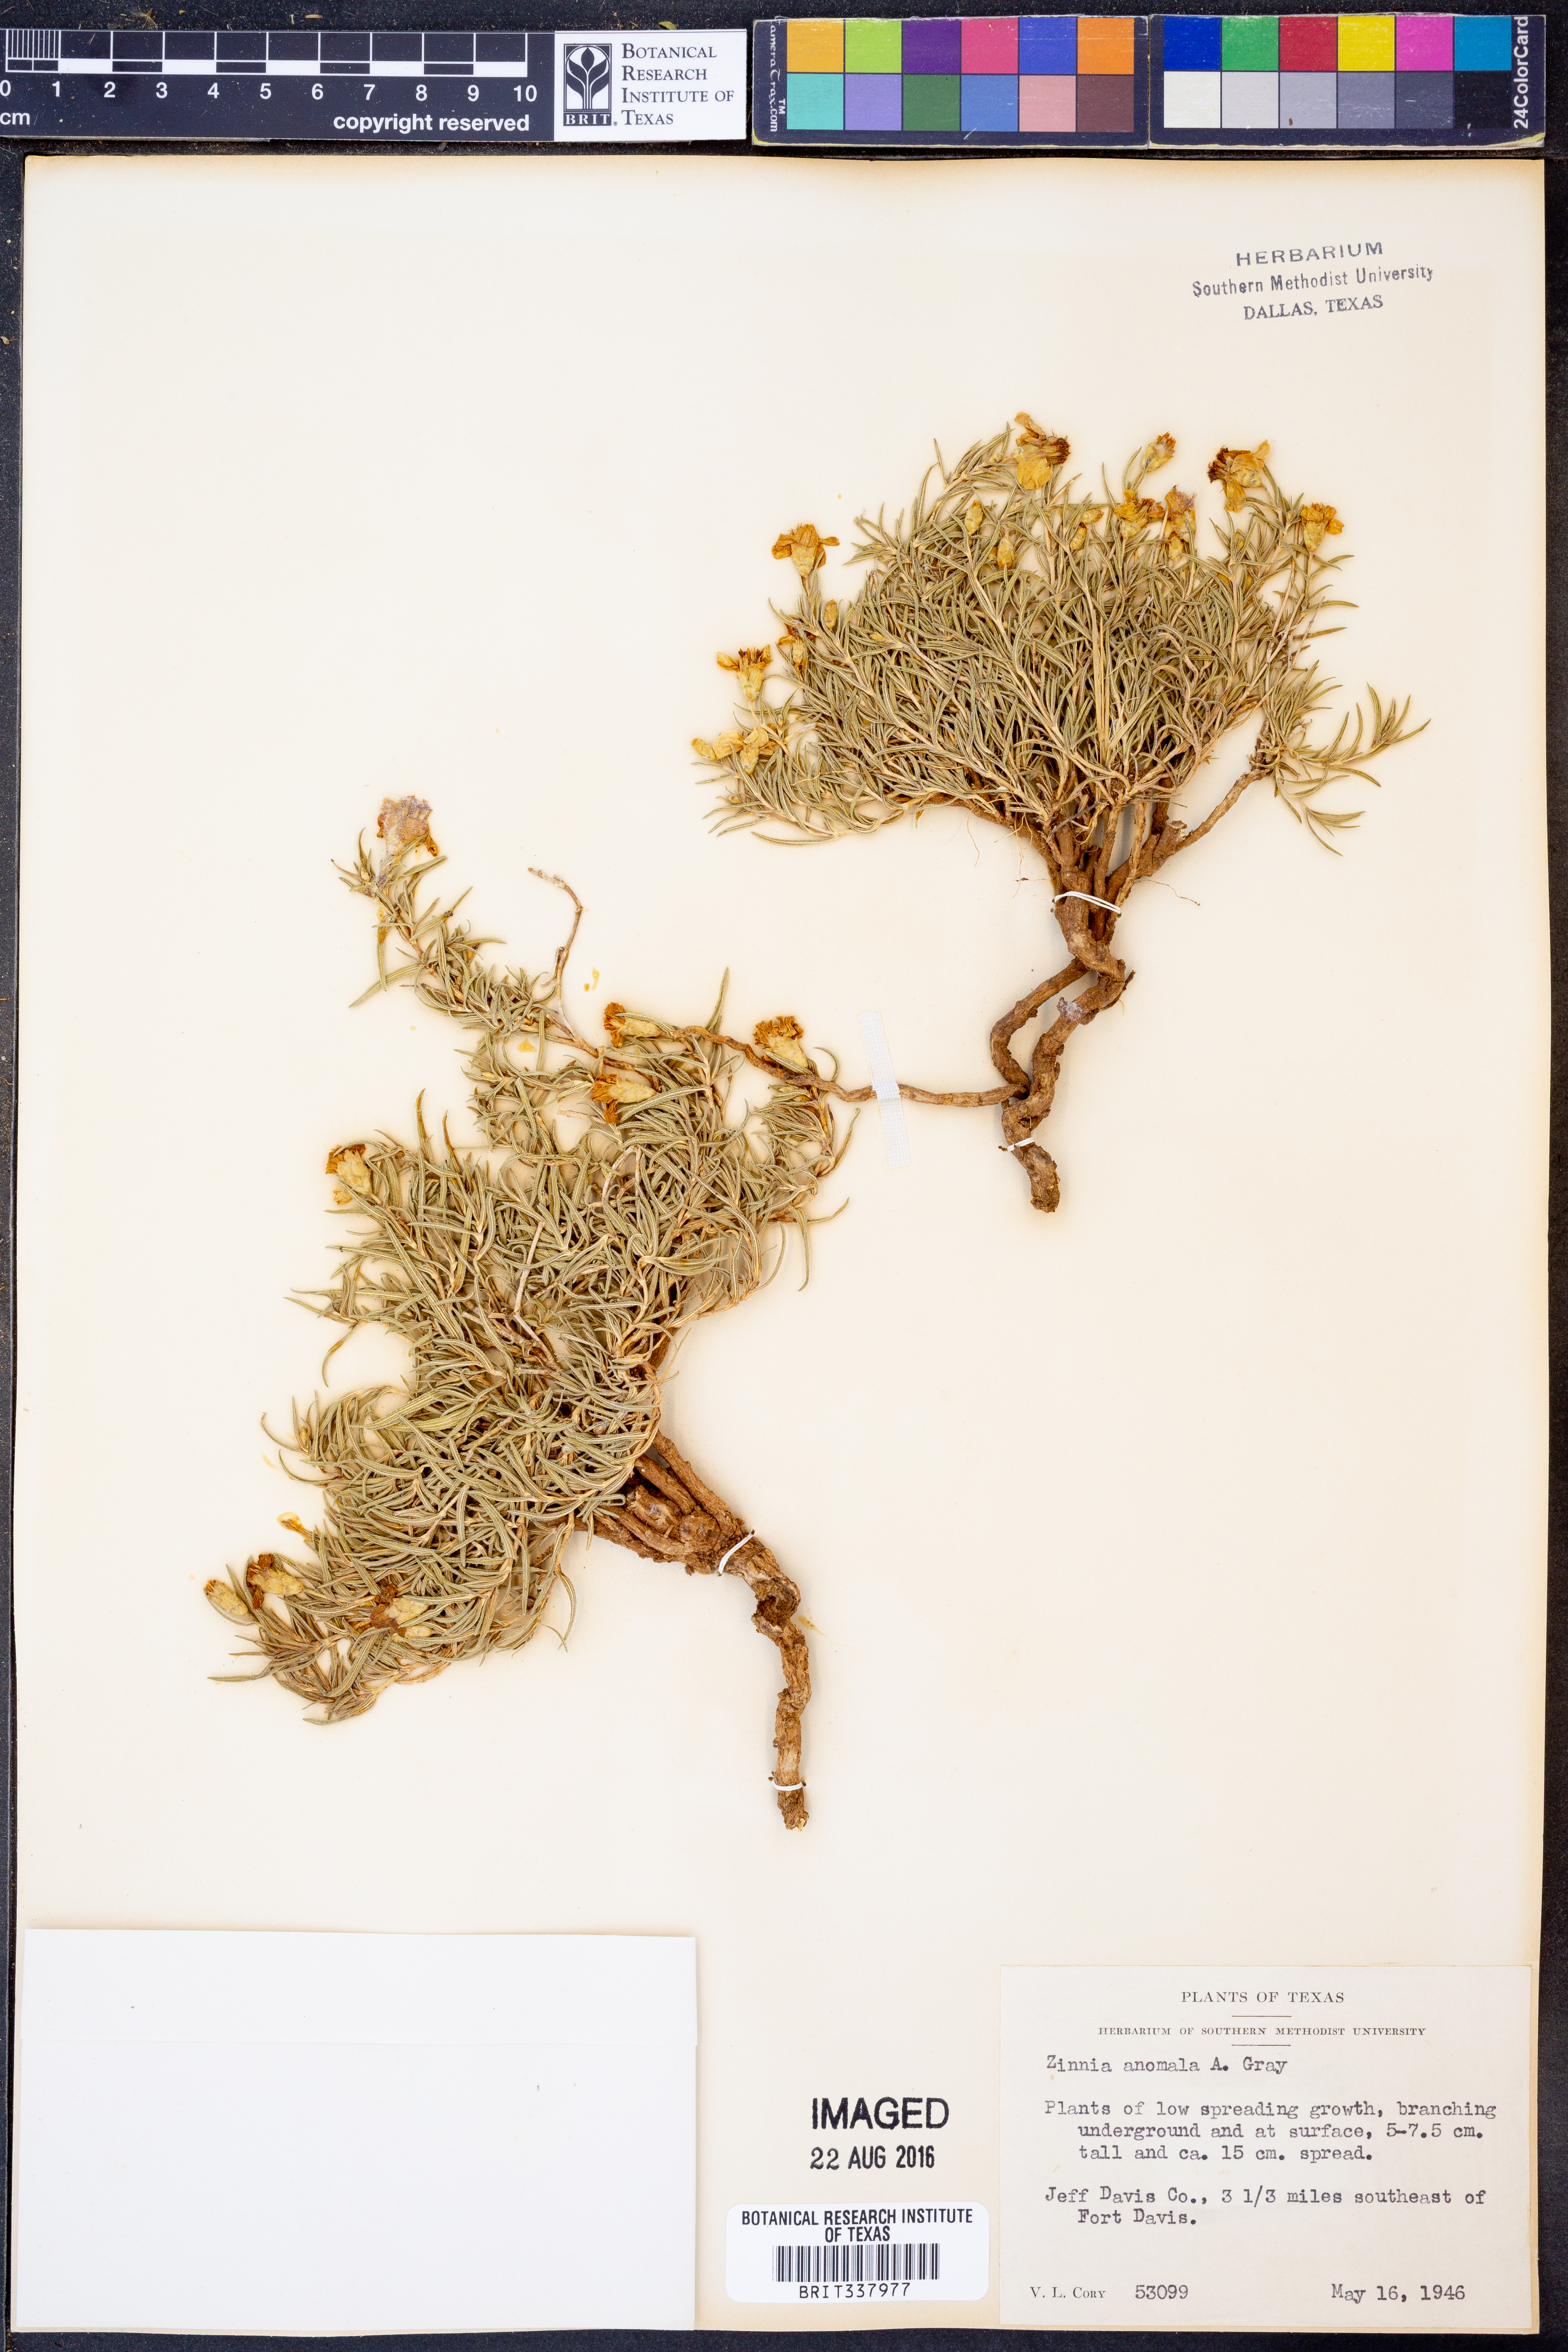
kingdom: Plantae
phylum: Tracheophyta
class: Magnoliopsida
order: Asterales
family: Asteraceae
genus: Zinnia
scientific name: Zinnia anomala
